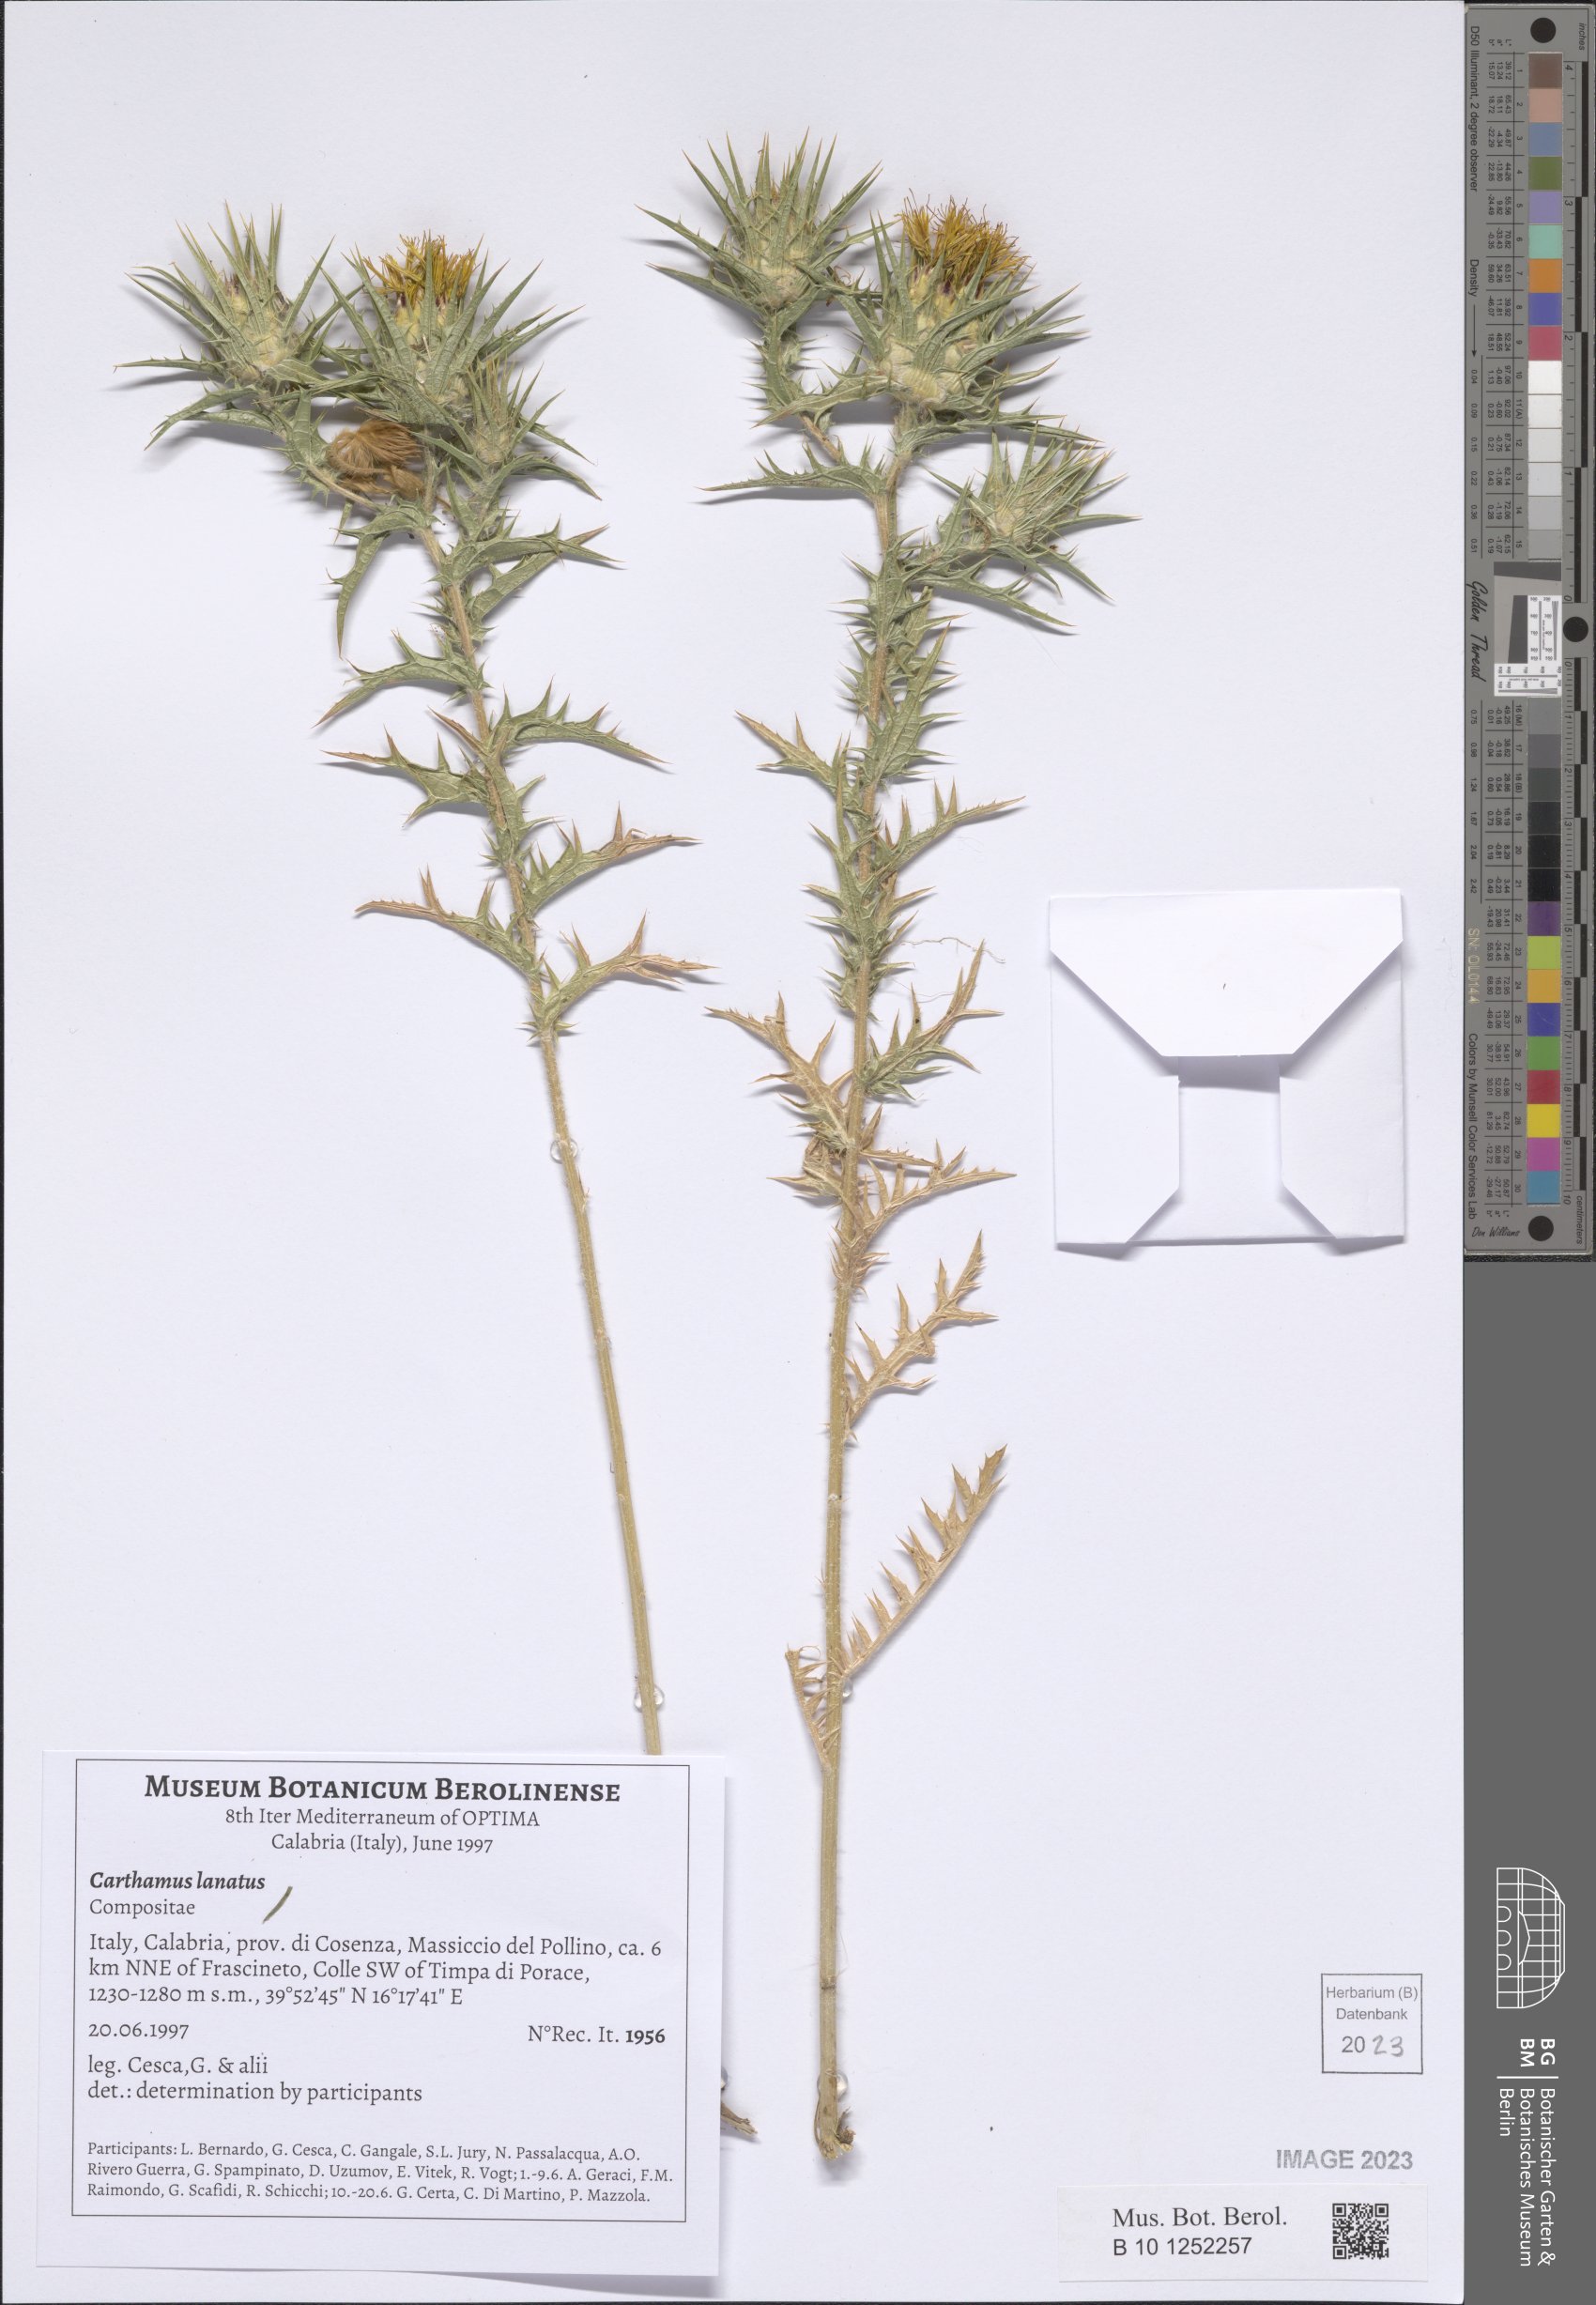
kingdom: Plantae
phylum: Tracheophyta
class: Magnoliopsida
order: Asterales
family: Asteraceae
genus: Carthamus
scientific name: Carthamus lanatus
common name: Downy safflower
